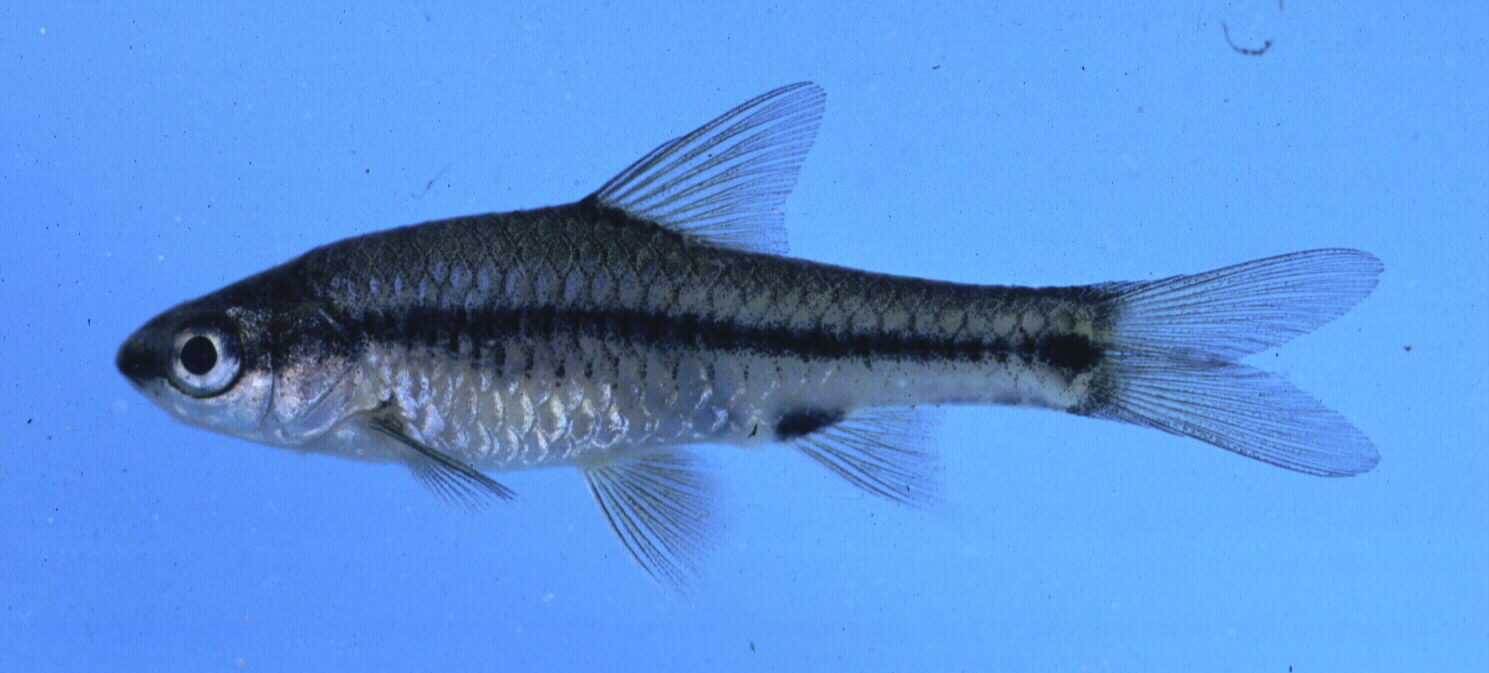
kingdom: Animalia
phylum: Chordata
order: Cypriniformes
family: Cyprinidae
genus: Enteromius
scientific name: Enteromius macrotaenia
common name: Broadband barb
